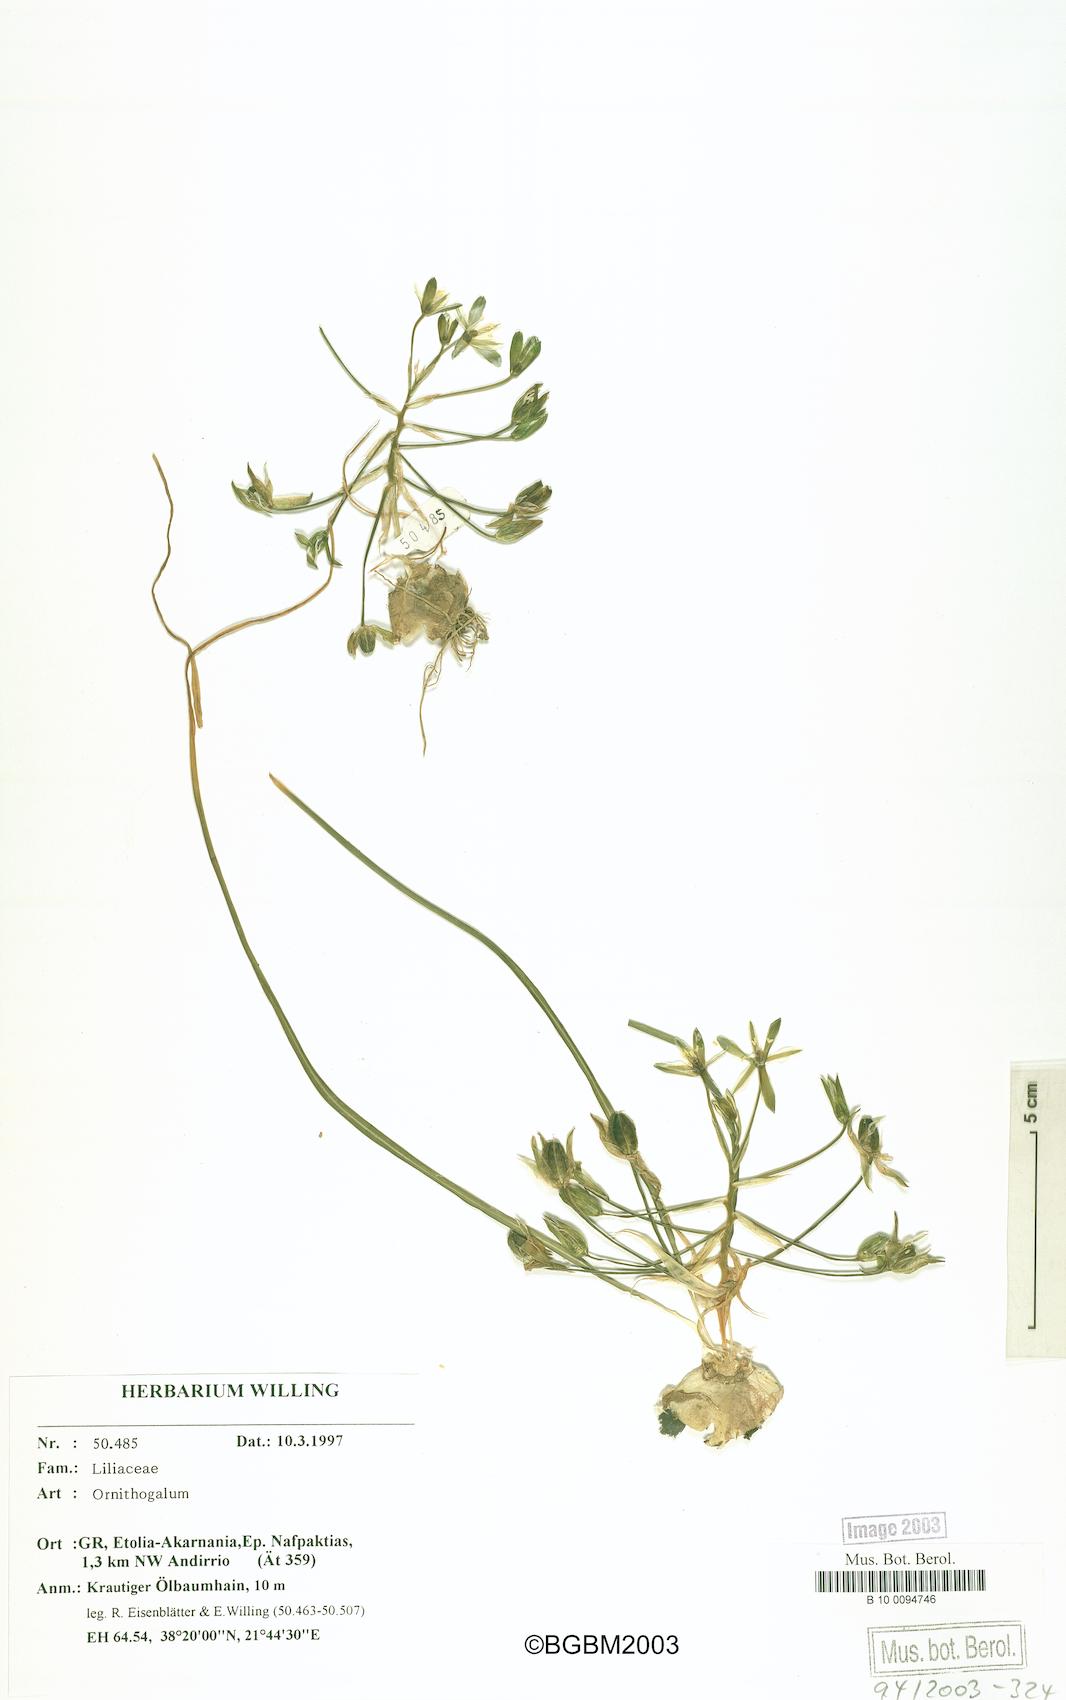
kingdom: Plantae
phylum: Tracheophyta
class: Liliopsida
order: Asparagales
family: Asparagaceae
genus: Ornithogalum
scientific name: Ornithogalum
